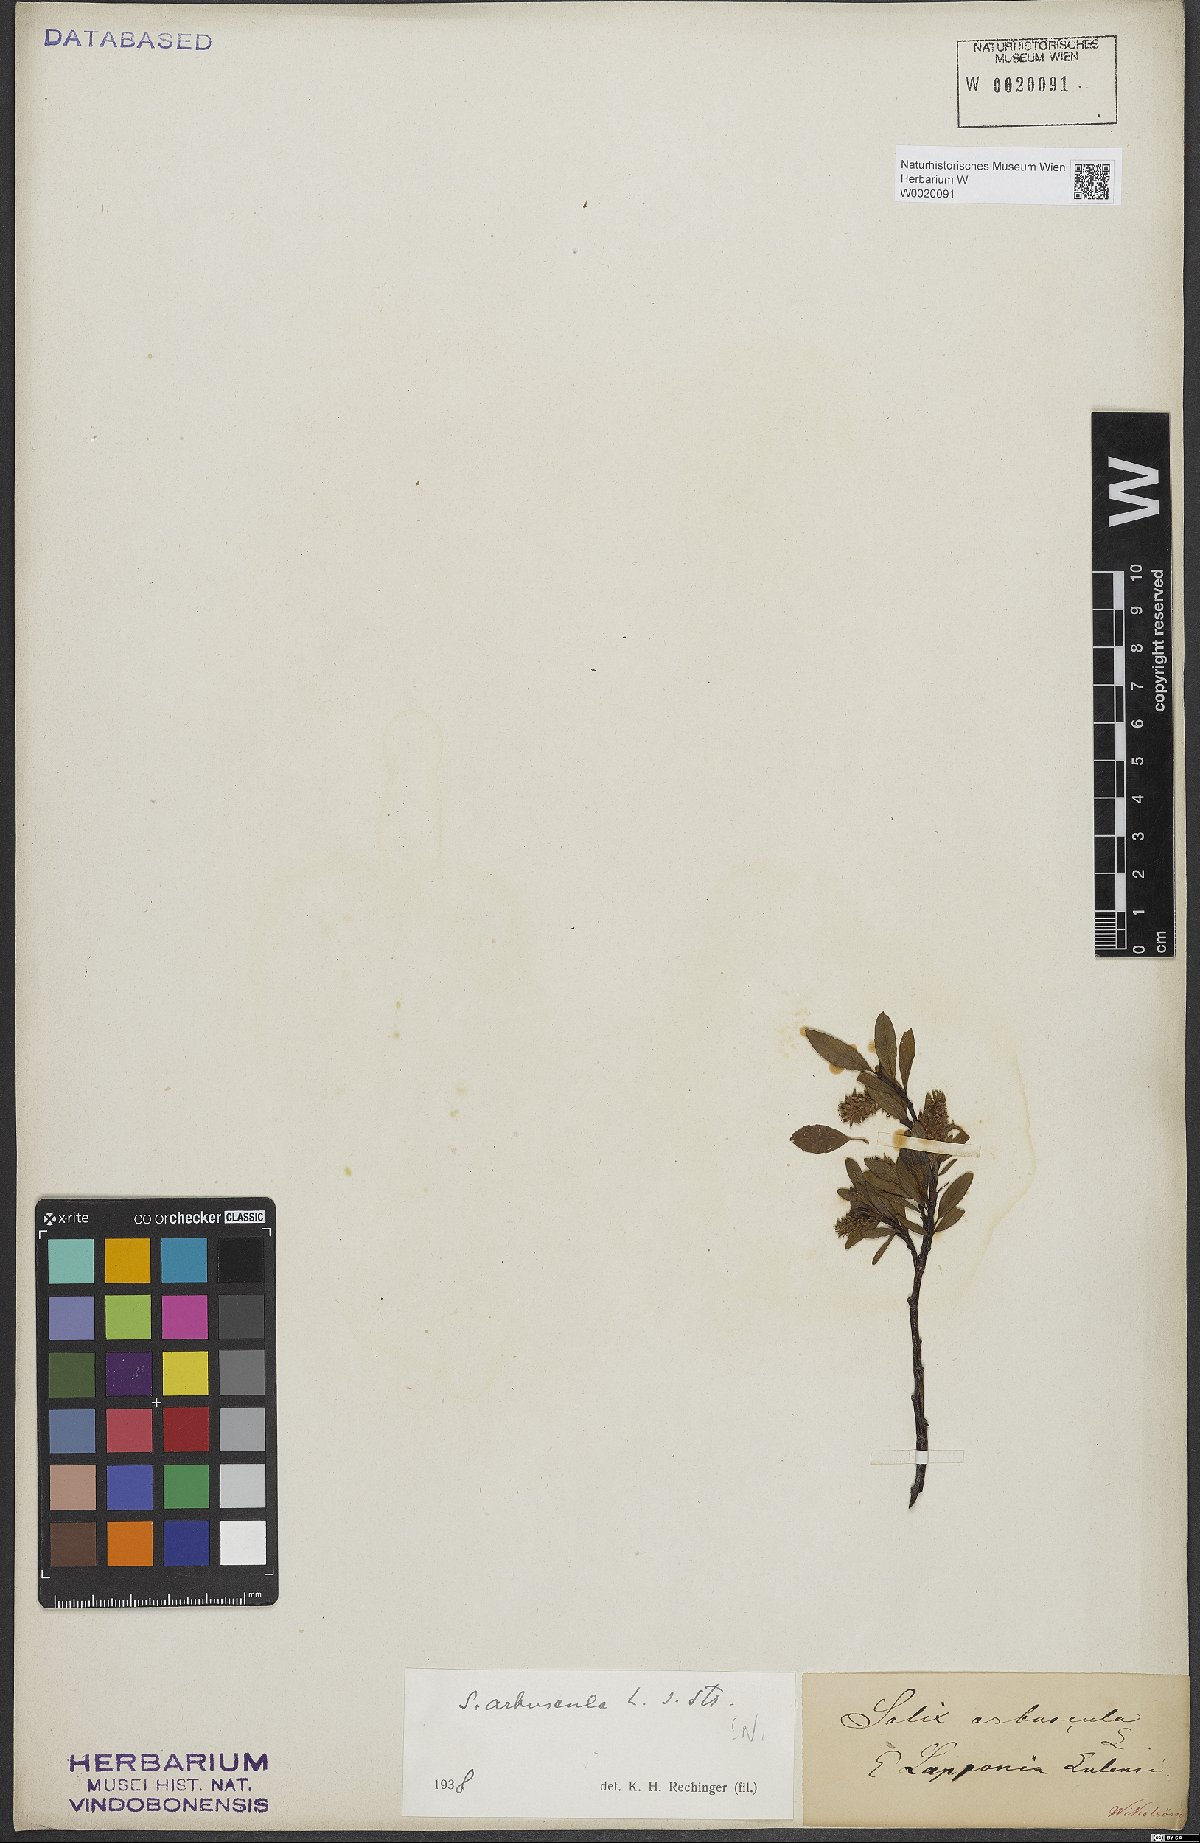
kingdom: Plantae
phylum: Tracheophyta
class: Magnoliopsida
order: Malpighiales
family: Salicaceae
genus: Salix
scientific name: Salix arbuscula
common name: Mountain willow
